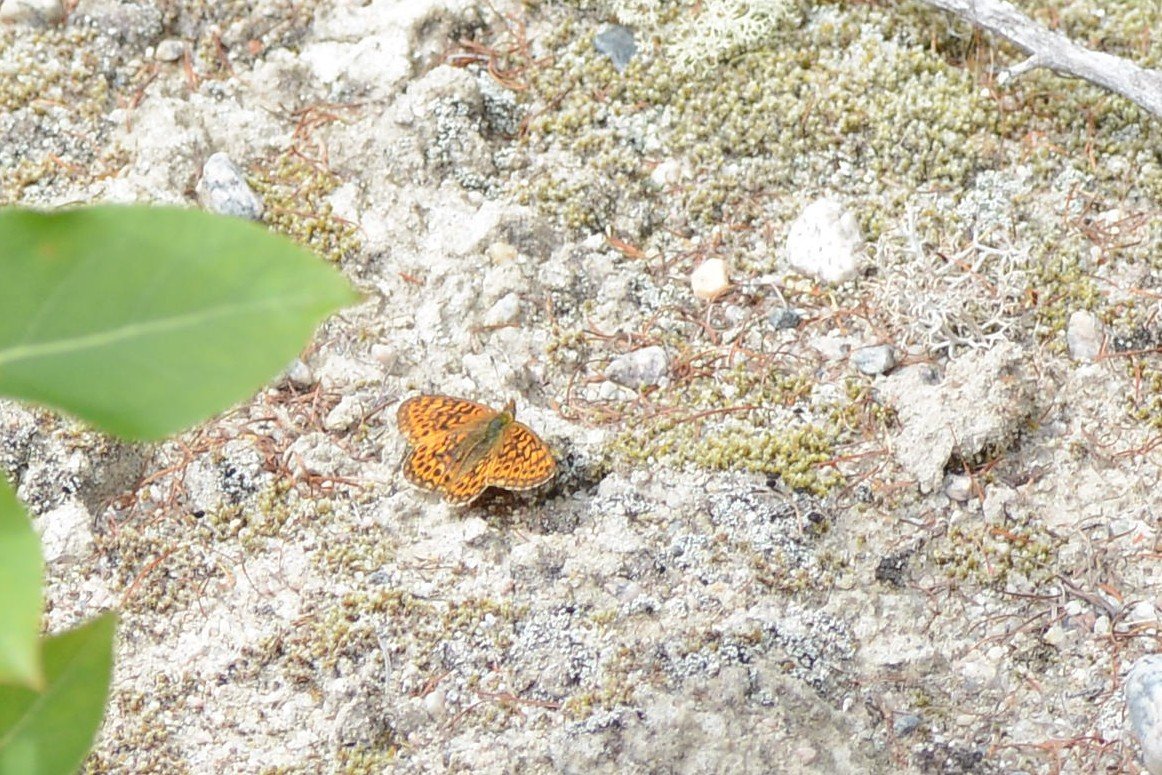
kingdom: Animalia
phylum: Arthropoda
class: Insecta
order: Lepidoptera
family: Nymphalidae
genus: Boloria
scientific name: Boloria eunomia
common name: Bog Fritillary
